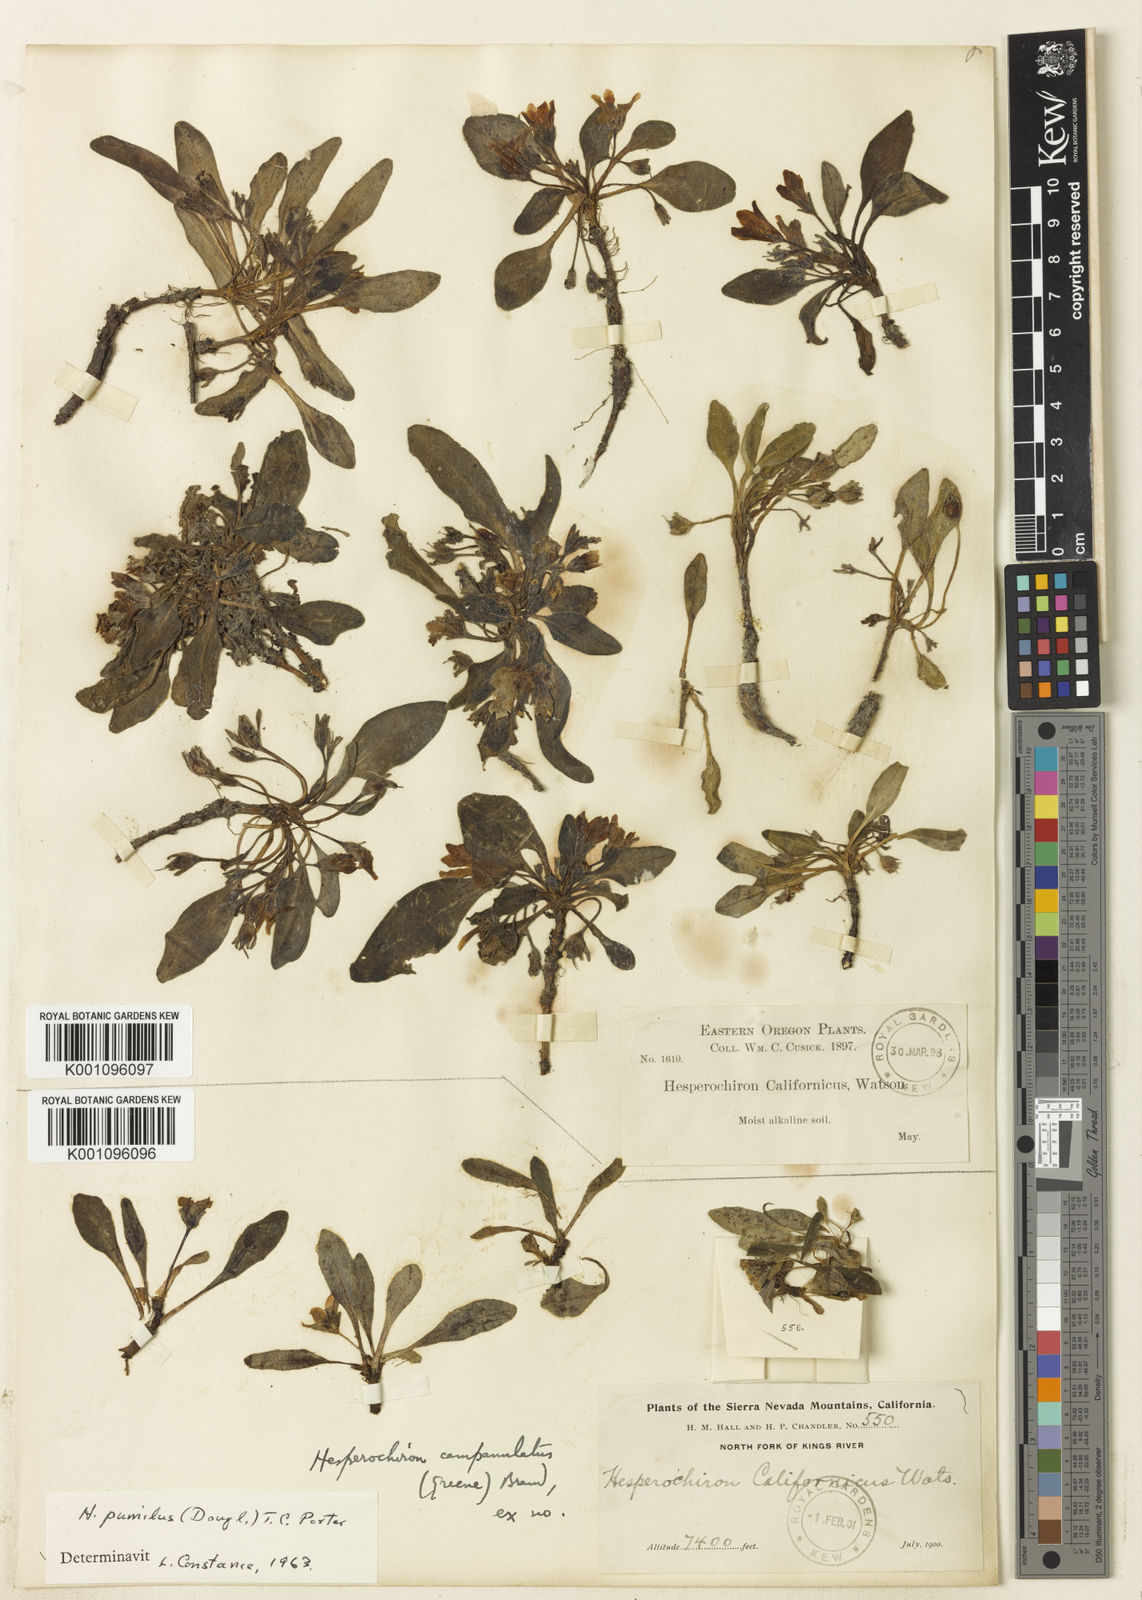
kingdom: Plantae
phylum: Tracheophyta
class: Magnoliopsida
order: Boraginales
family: Hydrophyllaceae
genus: Hesperochiron
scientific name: Hesperochiron pumilus
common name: Dwarf hesperochiron
